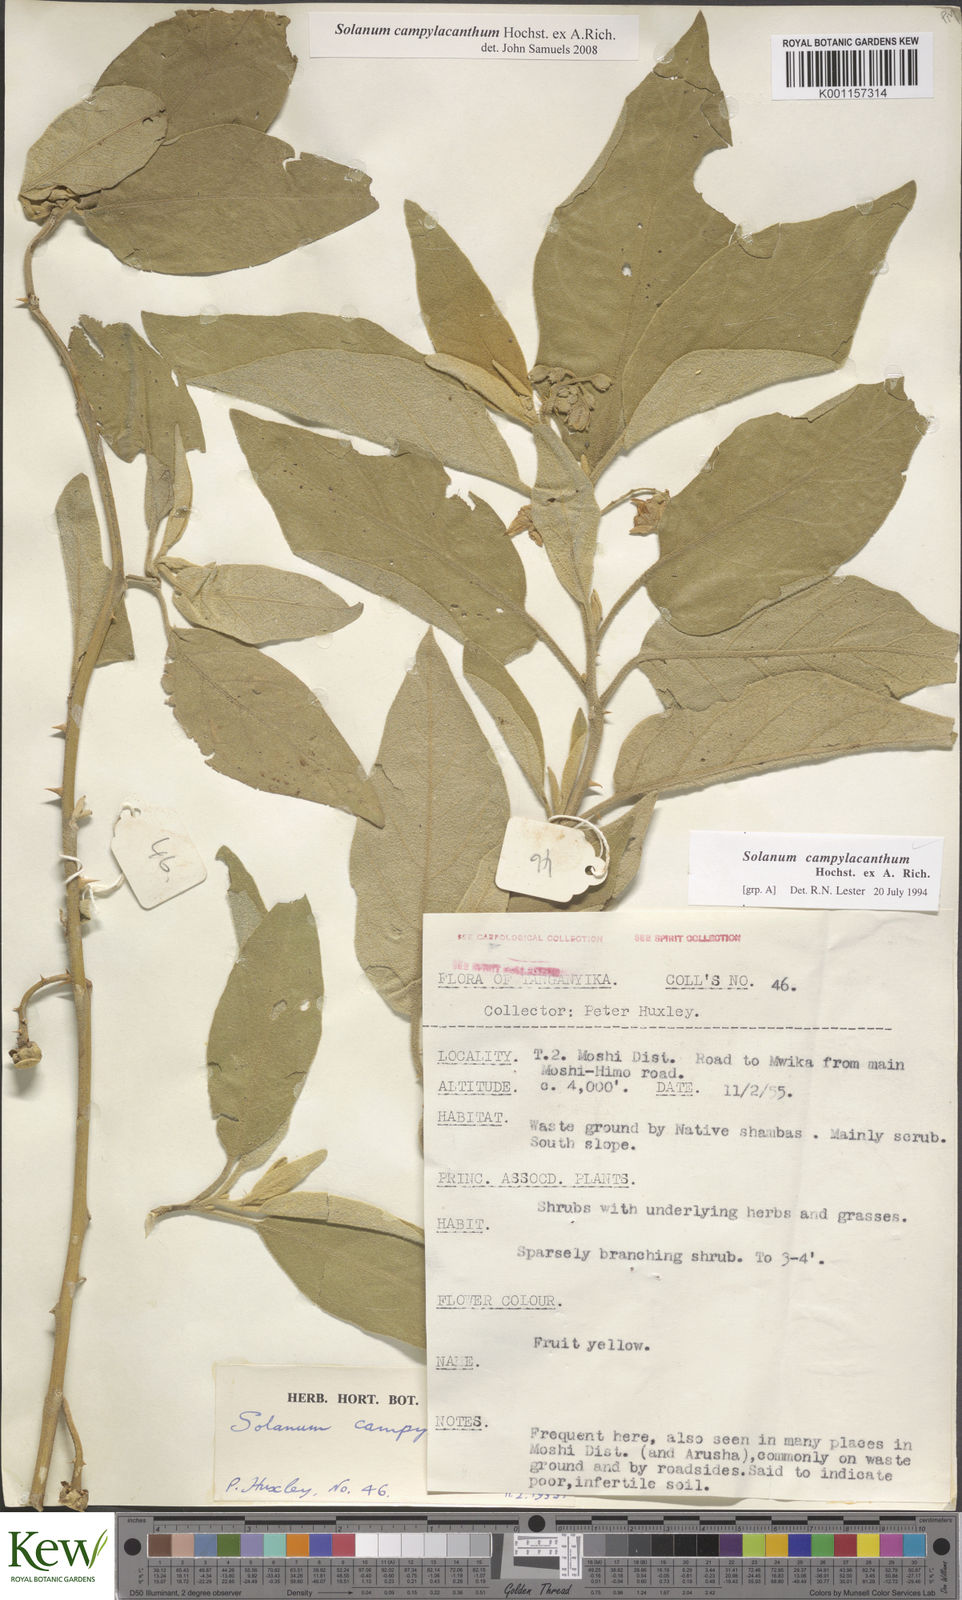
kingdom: Plantae
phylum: Tracheophyta
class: Magnoliopsida
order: Solanales
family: Solanaceae
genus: Solanum
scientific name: Solanum campylacanthum
